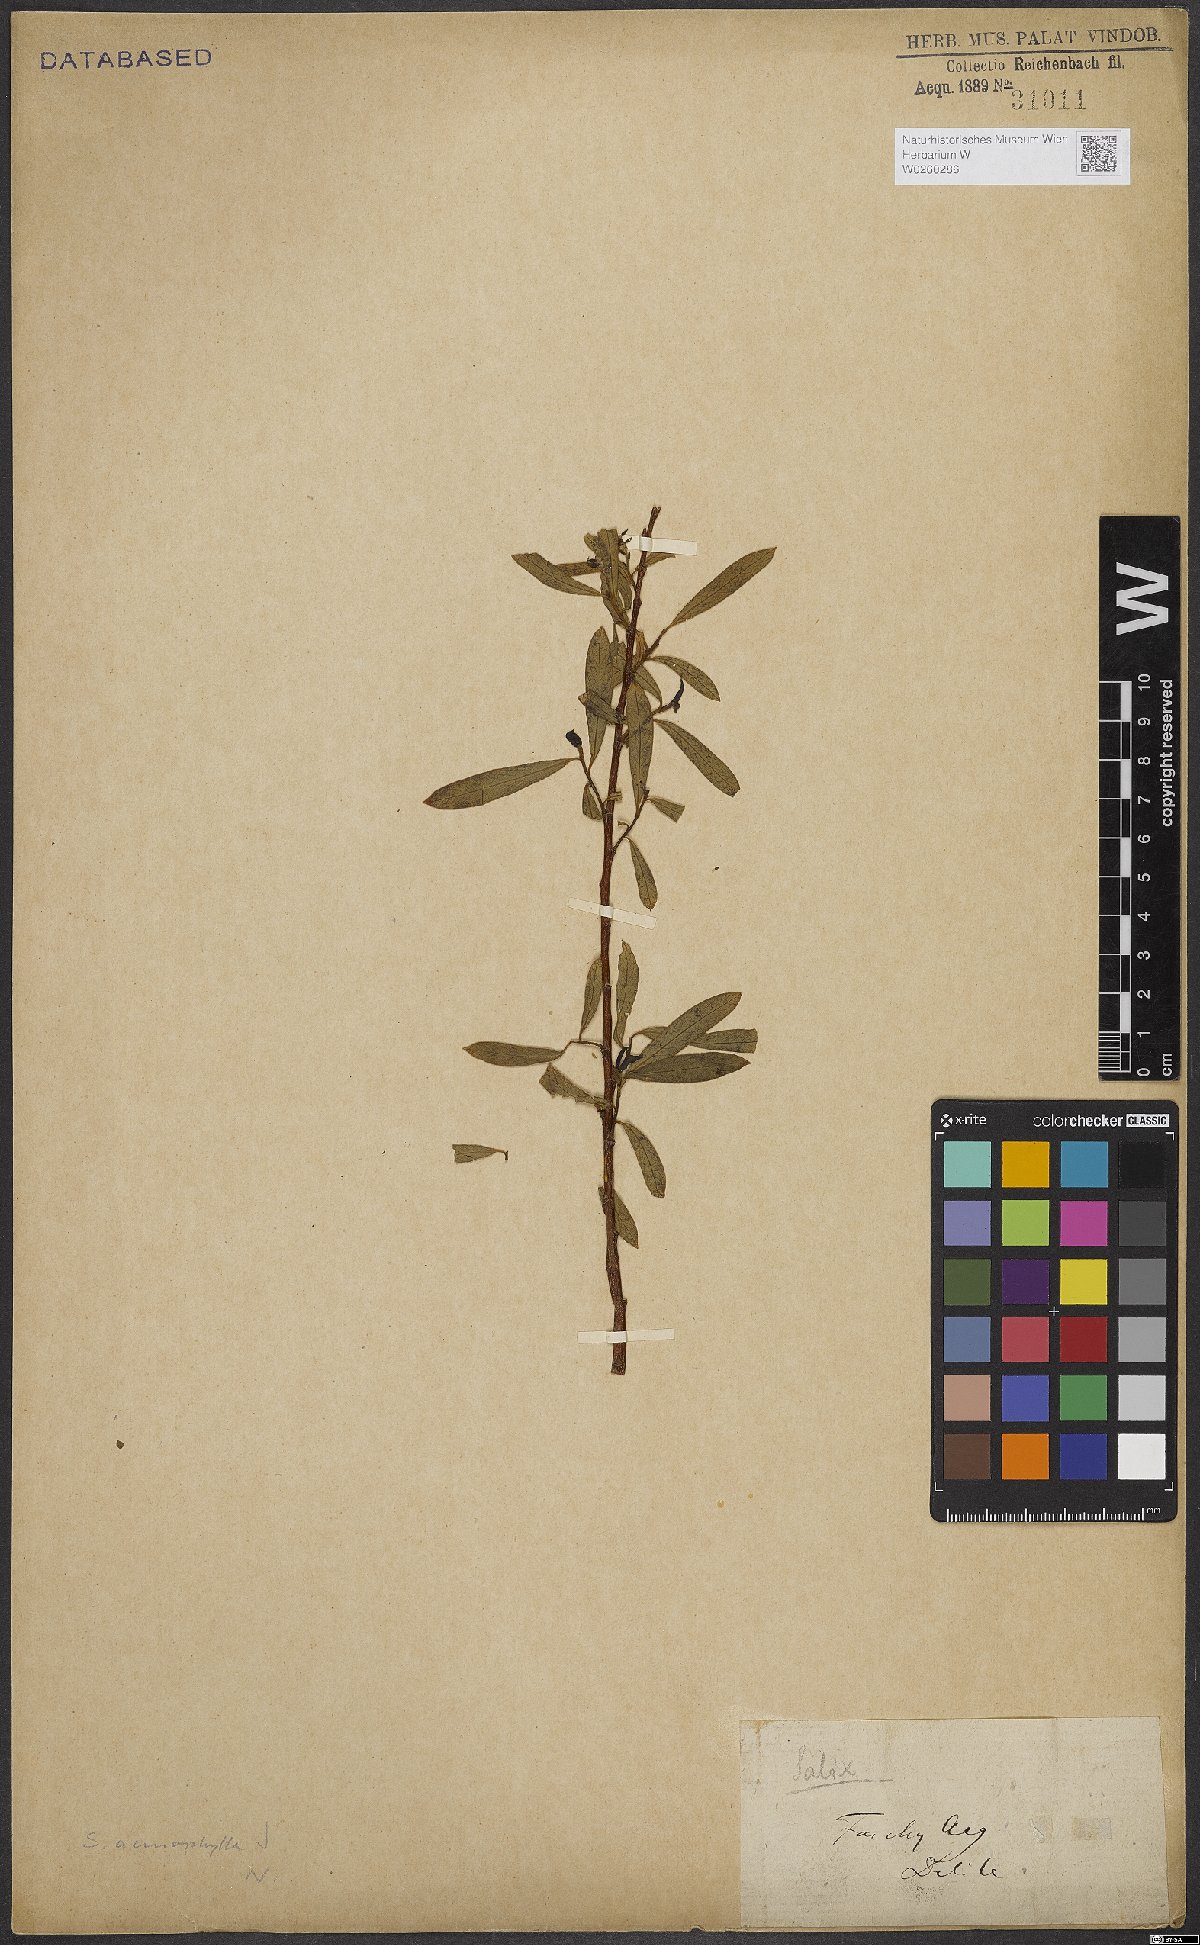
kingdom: Plantae
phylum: Tracheophyta
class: Magnoliopsida
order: Malpighiales
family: Salicaceae
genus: Salix
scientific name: Salix acmophylla
